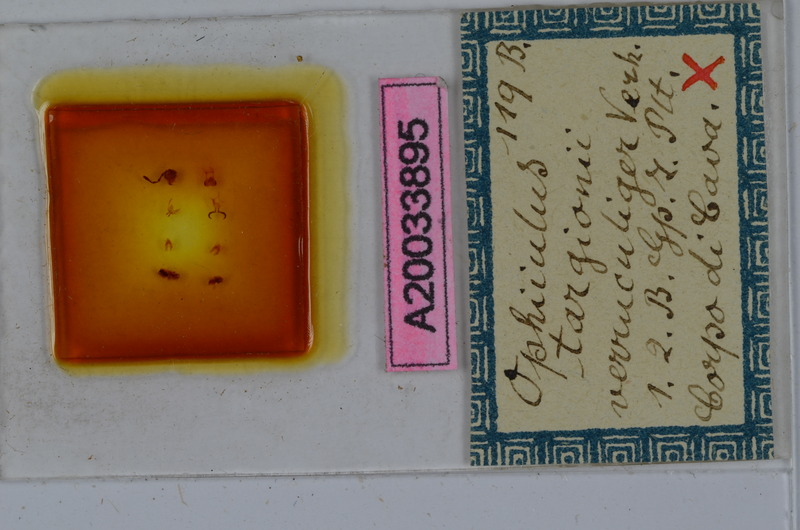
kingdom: Animalia
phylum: Arthropoda
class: Diplopoda
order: Julida
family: Julidae
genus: Ophyiulus
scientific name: Ophyiulus targionii
